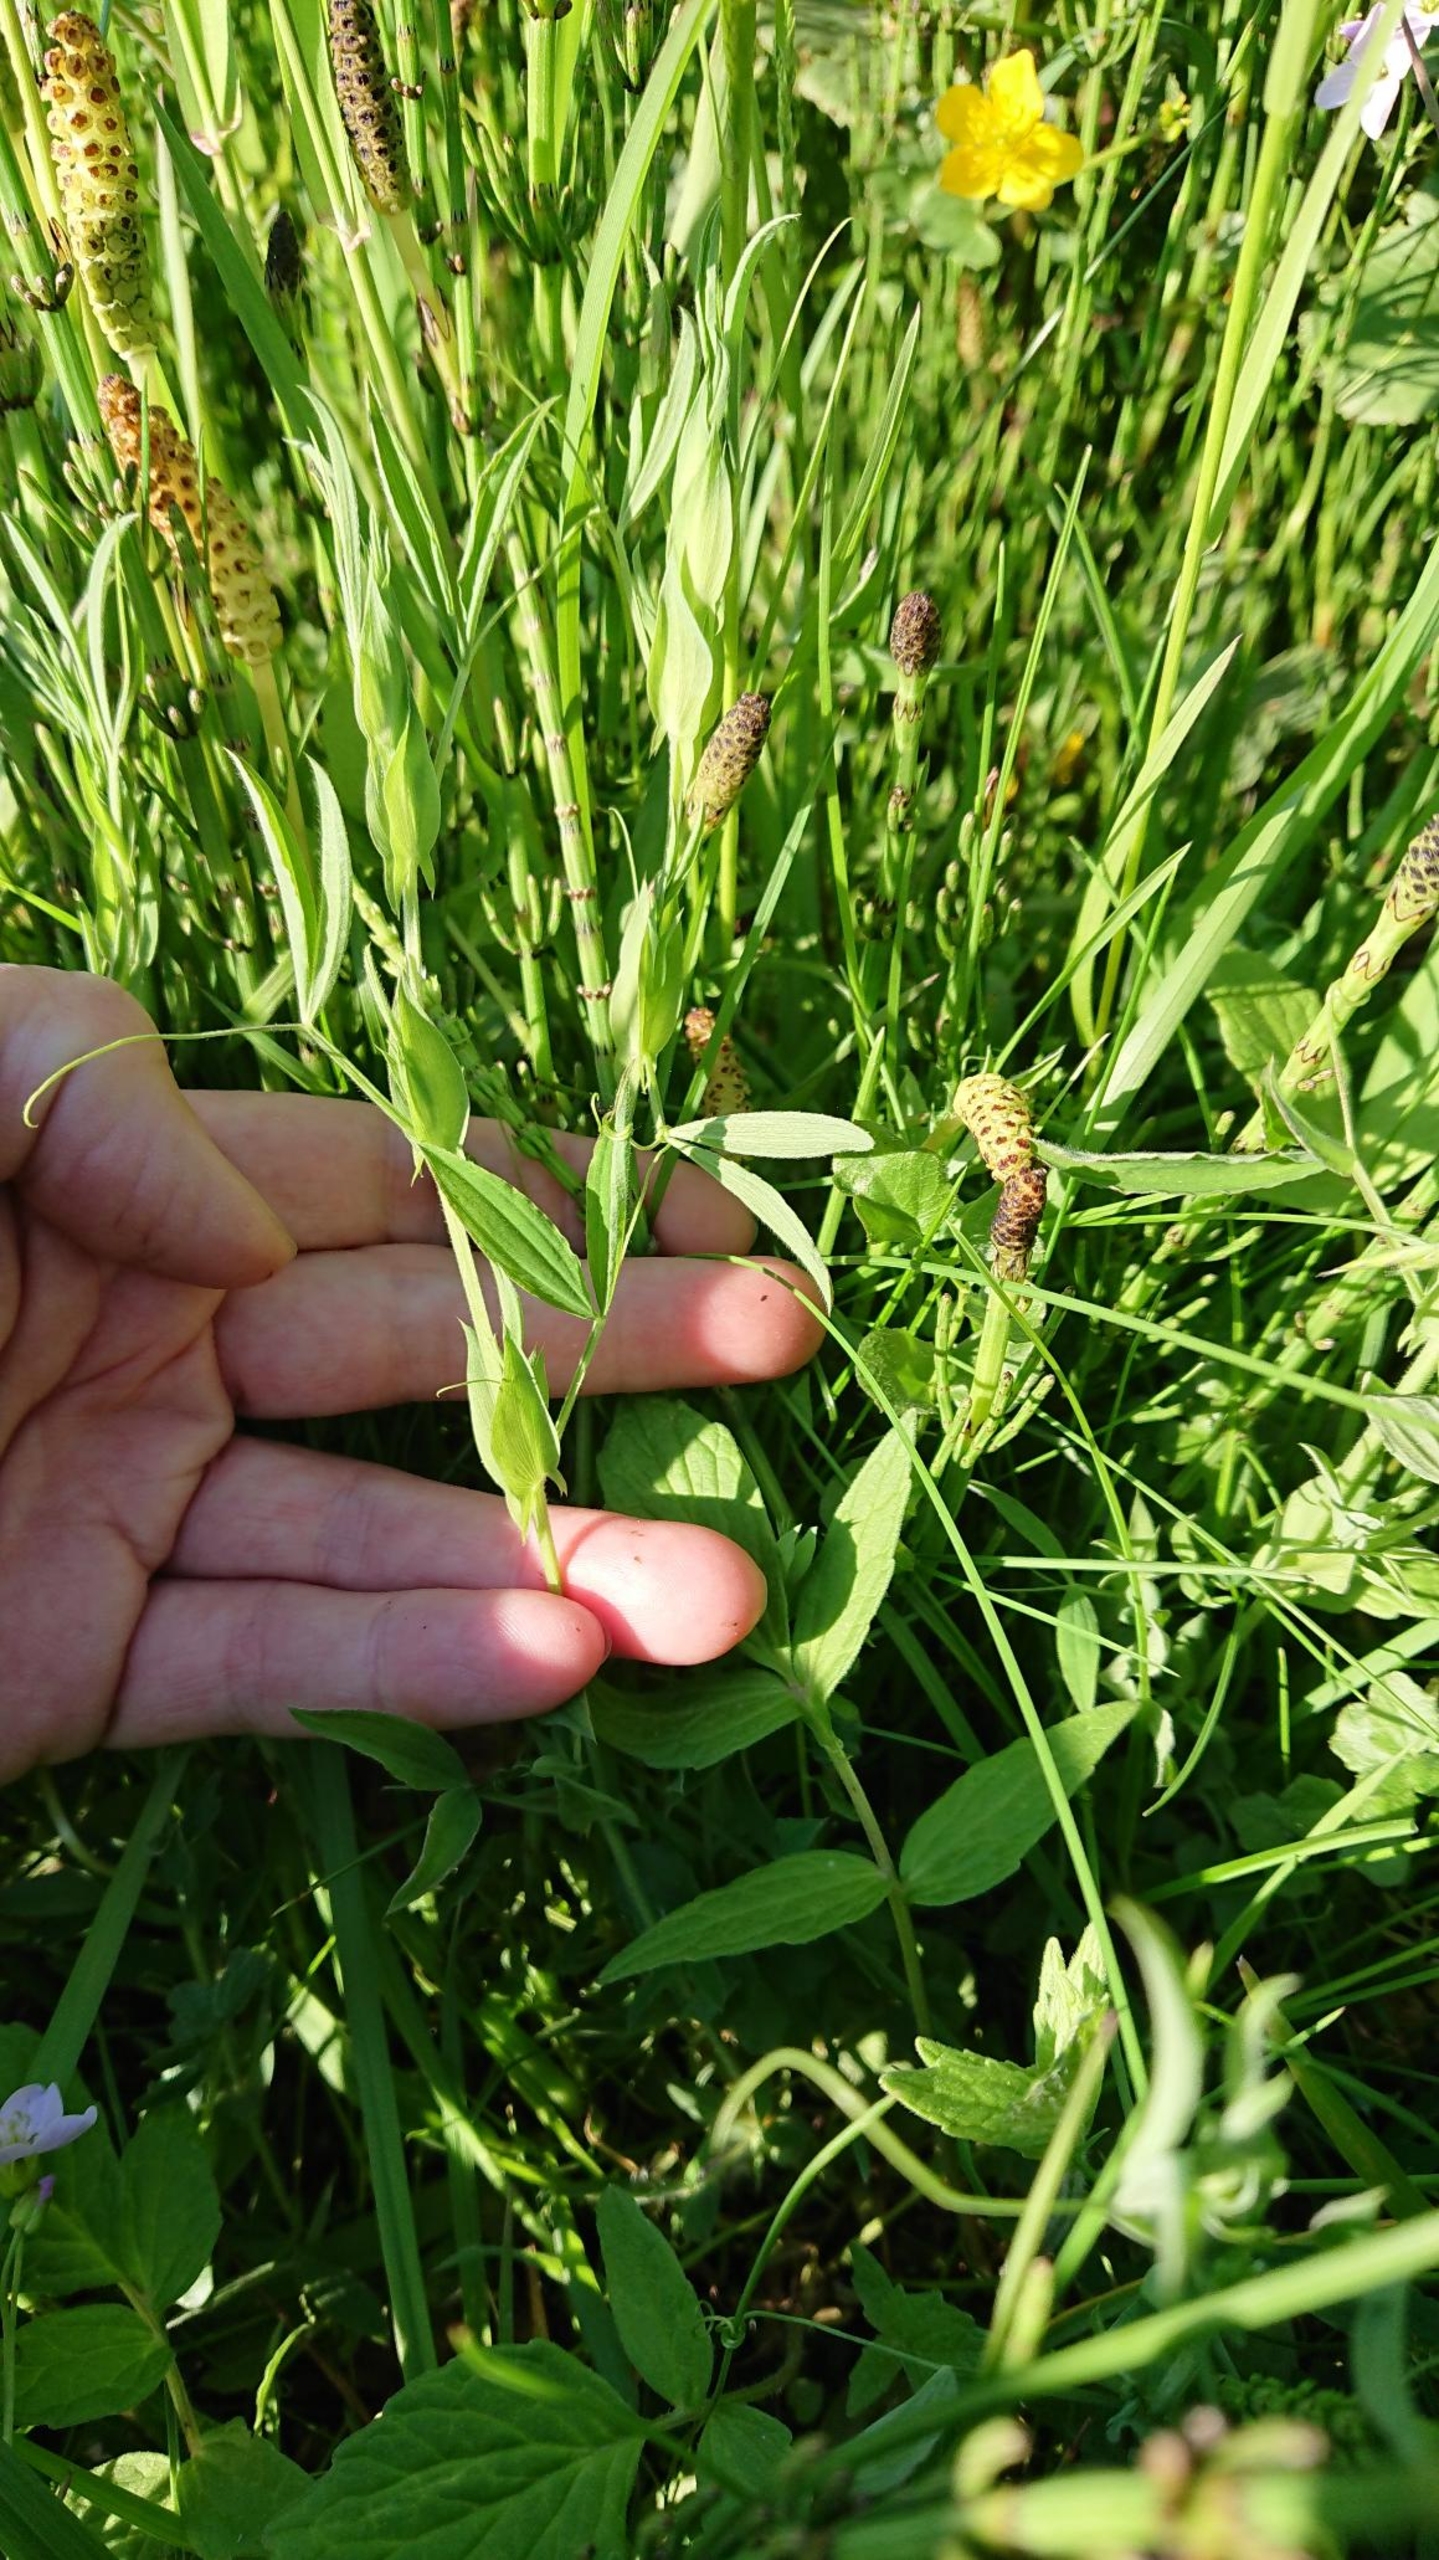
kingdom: Plantae
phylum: Tracheophyta
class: Magnoliopsida
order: Fabales
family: Fabaceae
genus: Lathyrus
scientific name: Lathyrus pratensis
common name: Gul fladbælg
